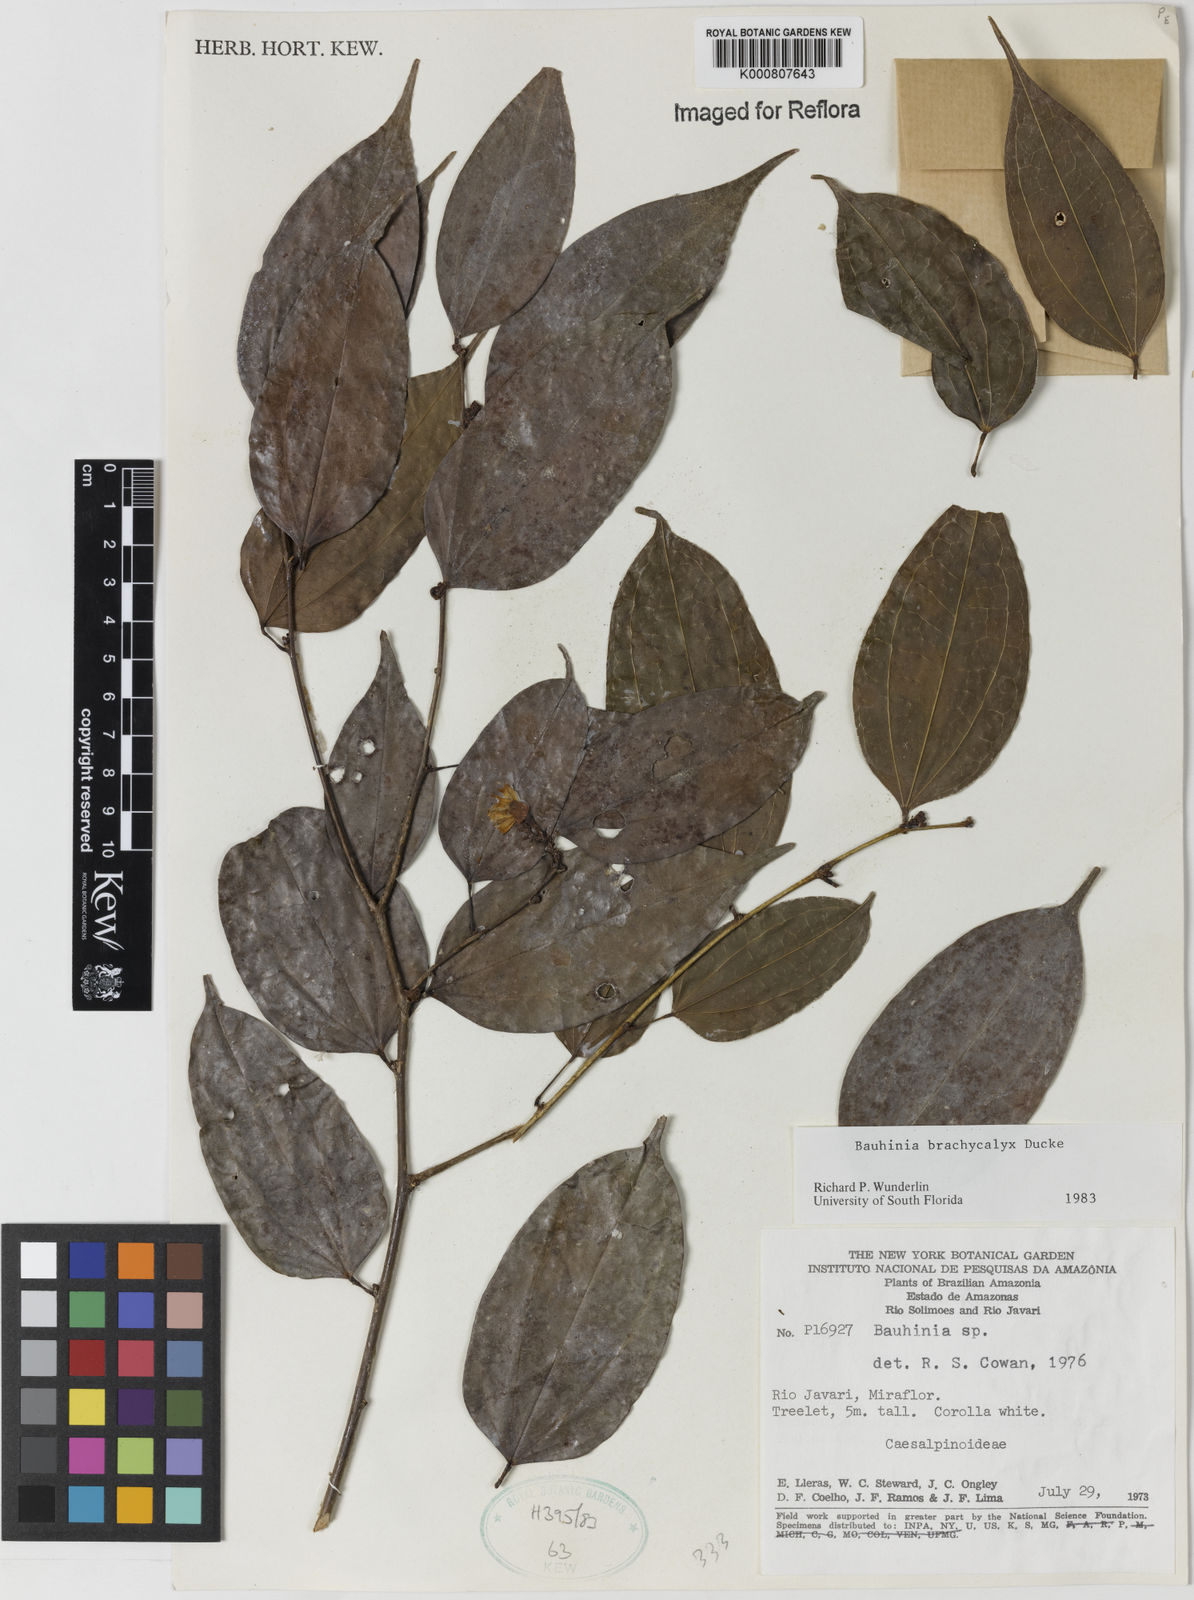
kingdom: Plantae
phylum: Tracheophyta
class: Magnoliopsida
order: Fabales
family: Fabaceae
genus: Bauhinia
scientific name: Bauhinia brachycalyx
